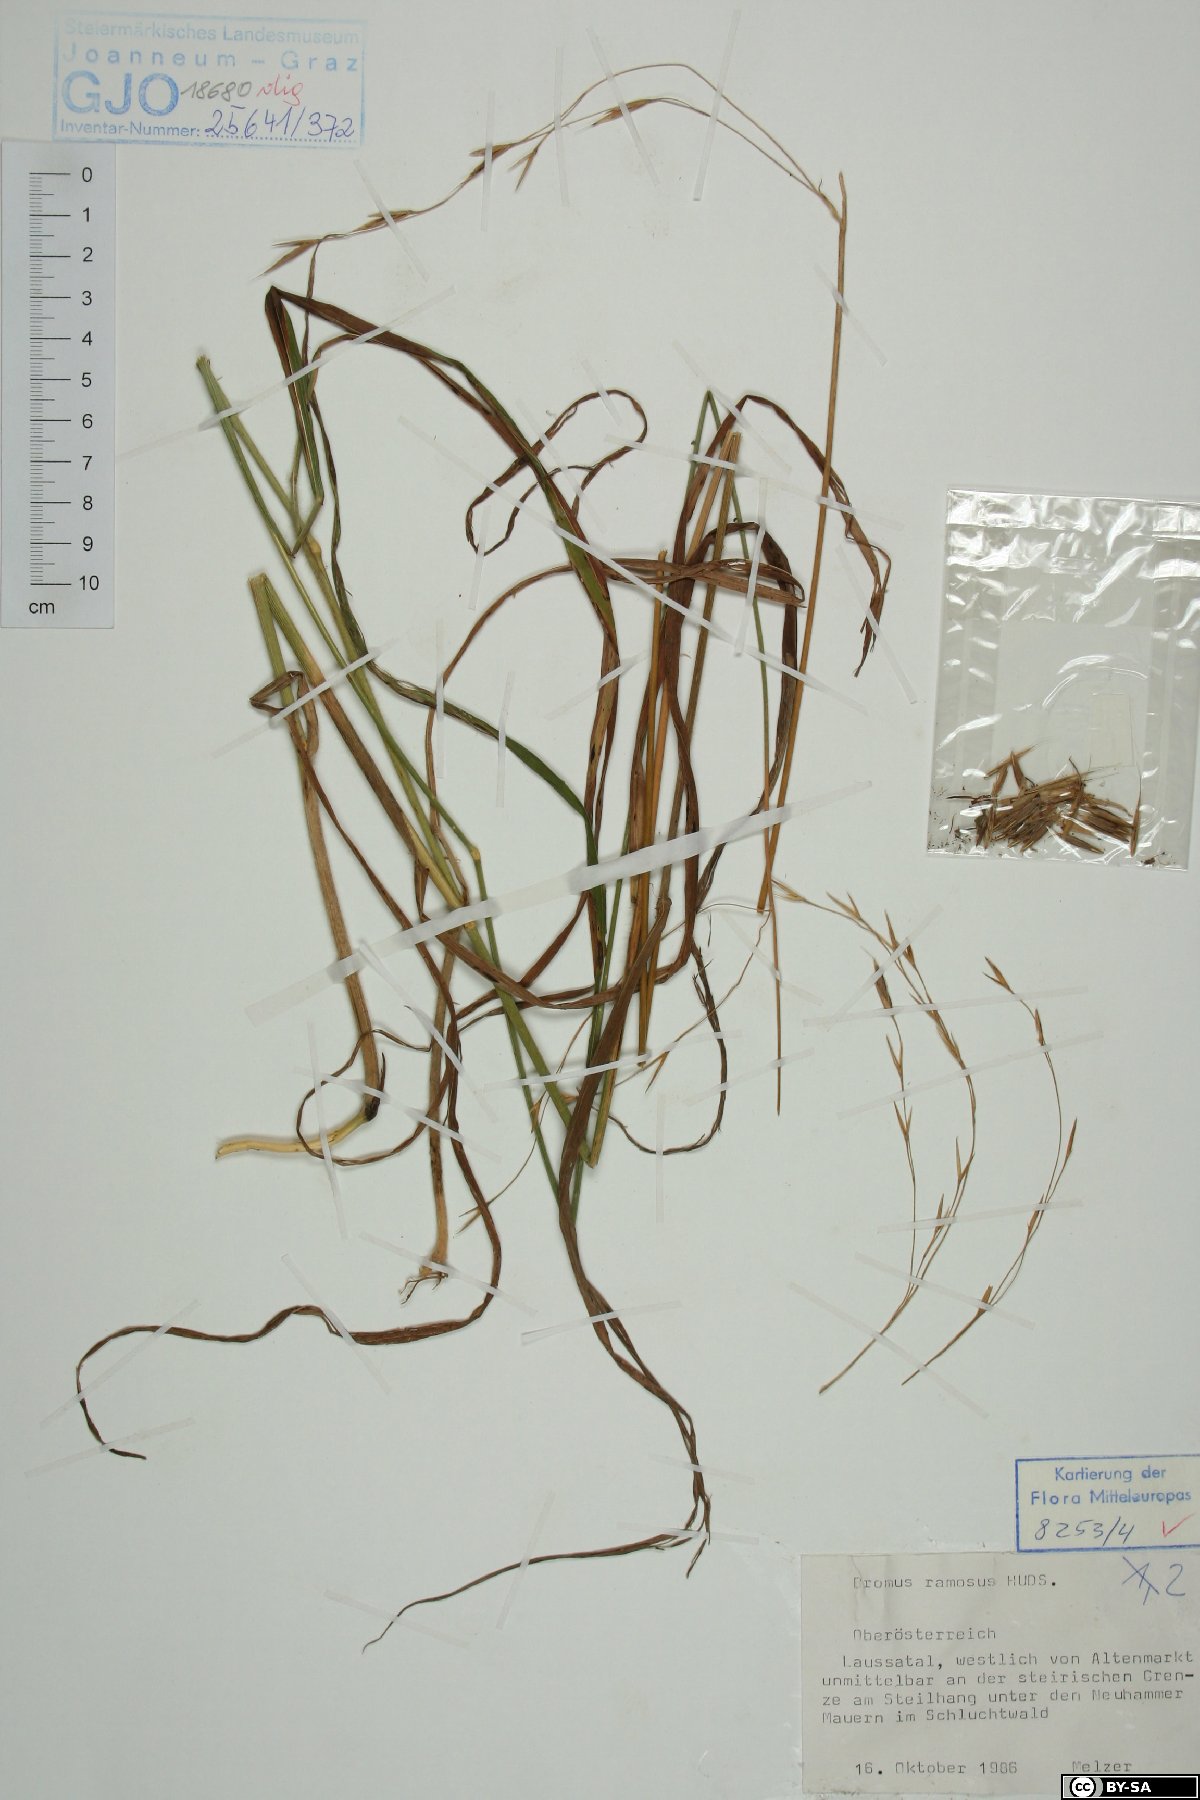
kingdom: Plantae
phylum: Tracheophyta
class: Liliopsida
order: Poales
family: Poaceae
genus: Bromus
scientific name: Bromus ramosus
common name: Hairy brome
